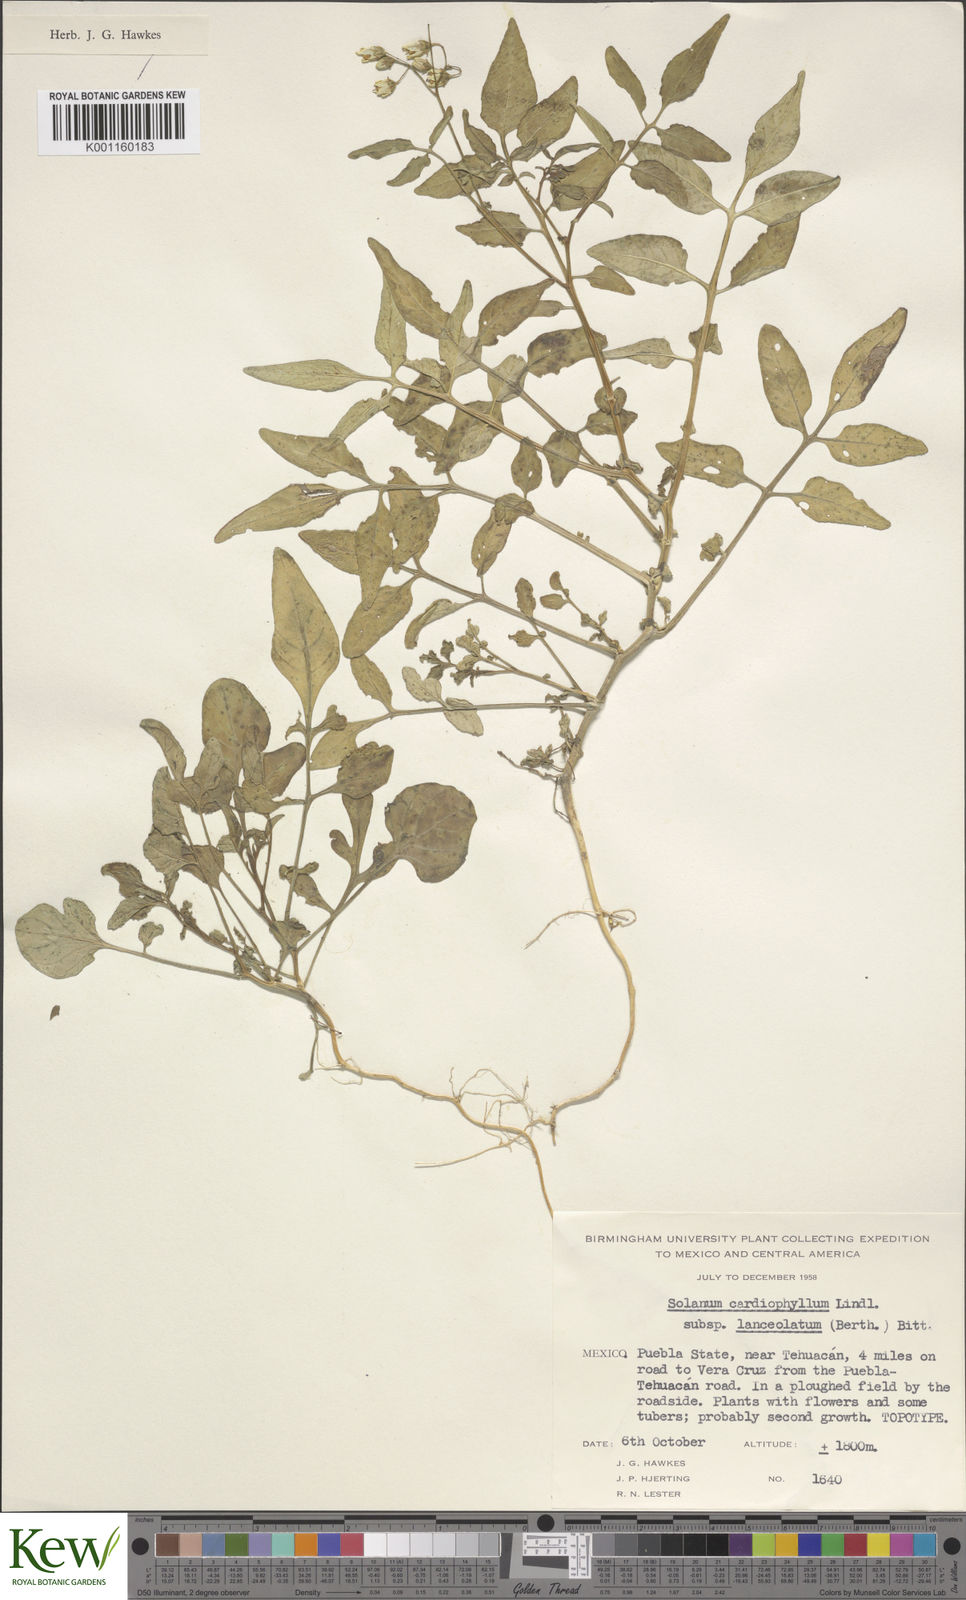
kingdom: Plantae
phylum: Tracheophyta
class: Magnoliopsida
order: Solanales
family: Solanaceae
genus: Solanum
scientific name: Solanum cardiophyllum
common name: Heartleaf horsenettle
